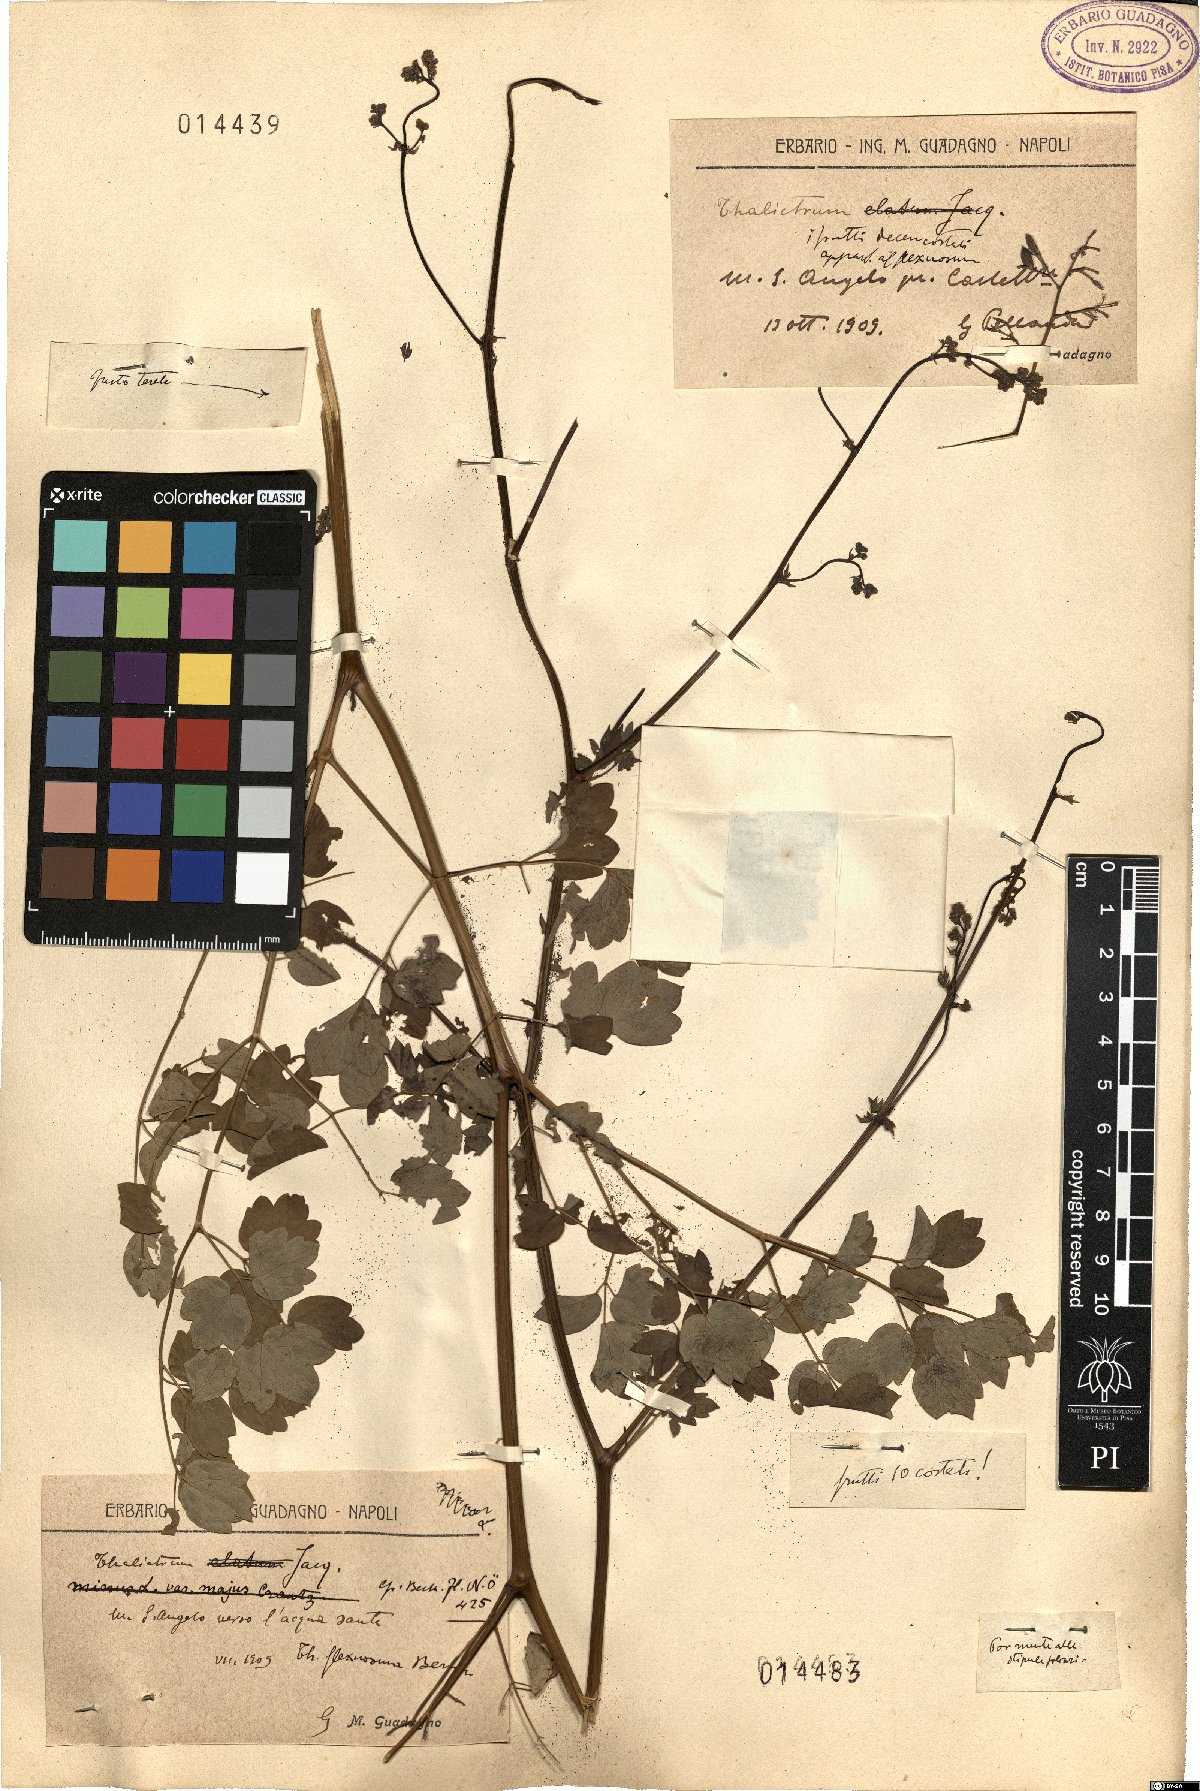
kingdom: Plantae
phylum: Tracheophyta
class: Magnoliopsida
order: Ranunculales
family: Ranunculaceae
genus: Thalictrum
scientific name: Thalictrum minus
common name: Lesser meadow-rue
